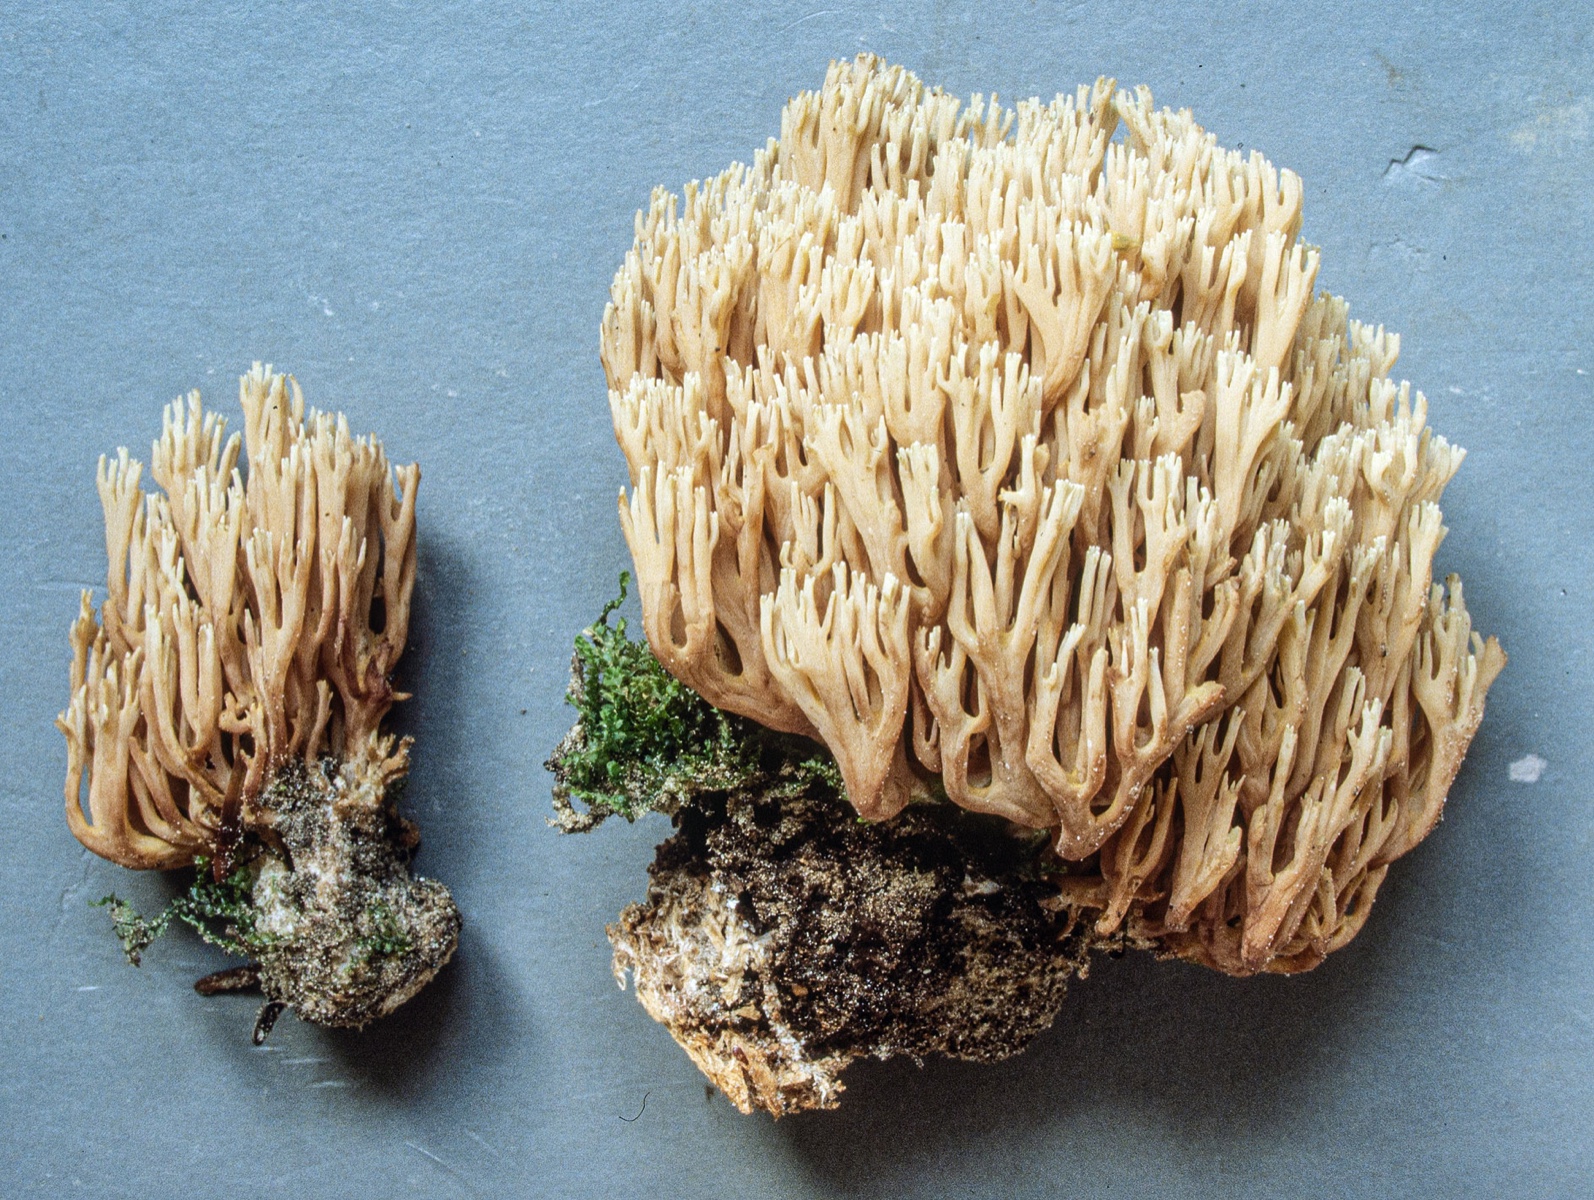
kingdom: Fungi
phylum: Basidiomycota
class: Agaricomycetes
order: Gomphales
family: Gomphaceae
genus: Ramaria
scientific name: Ramaria concolor
